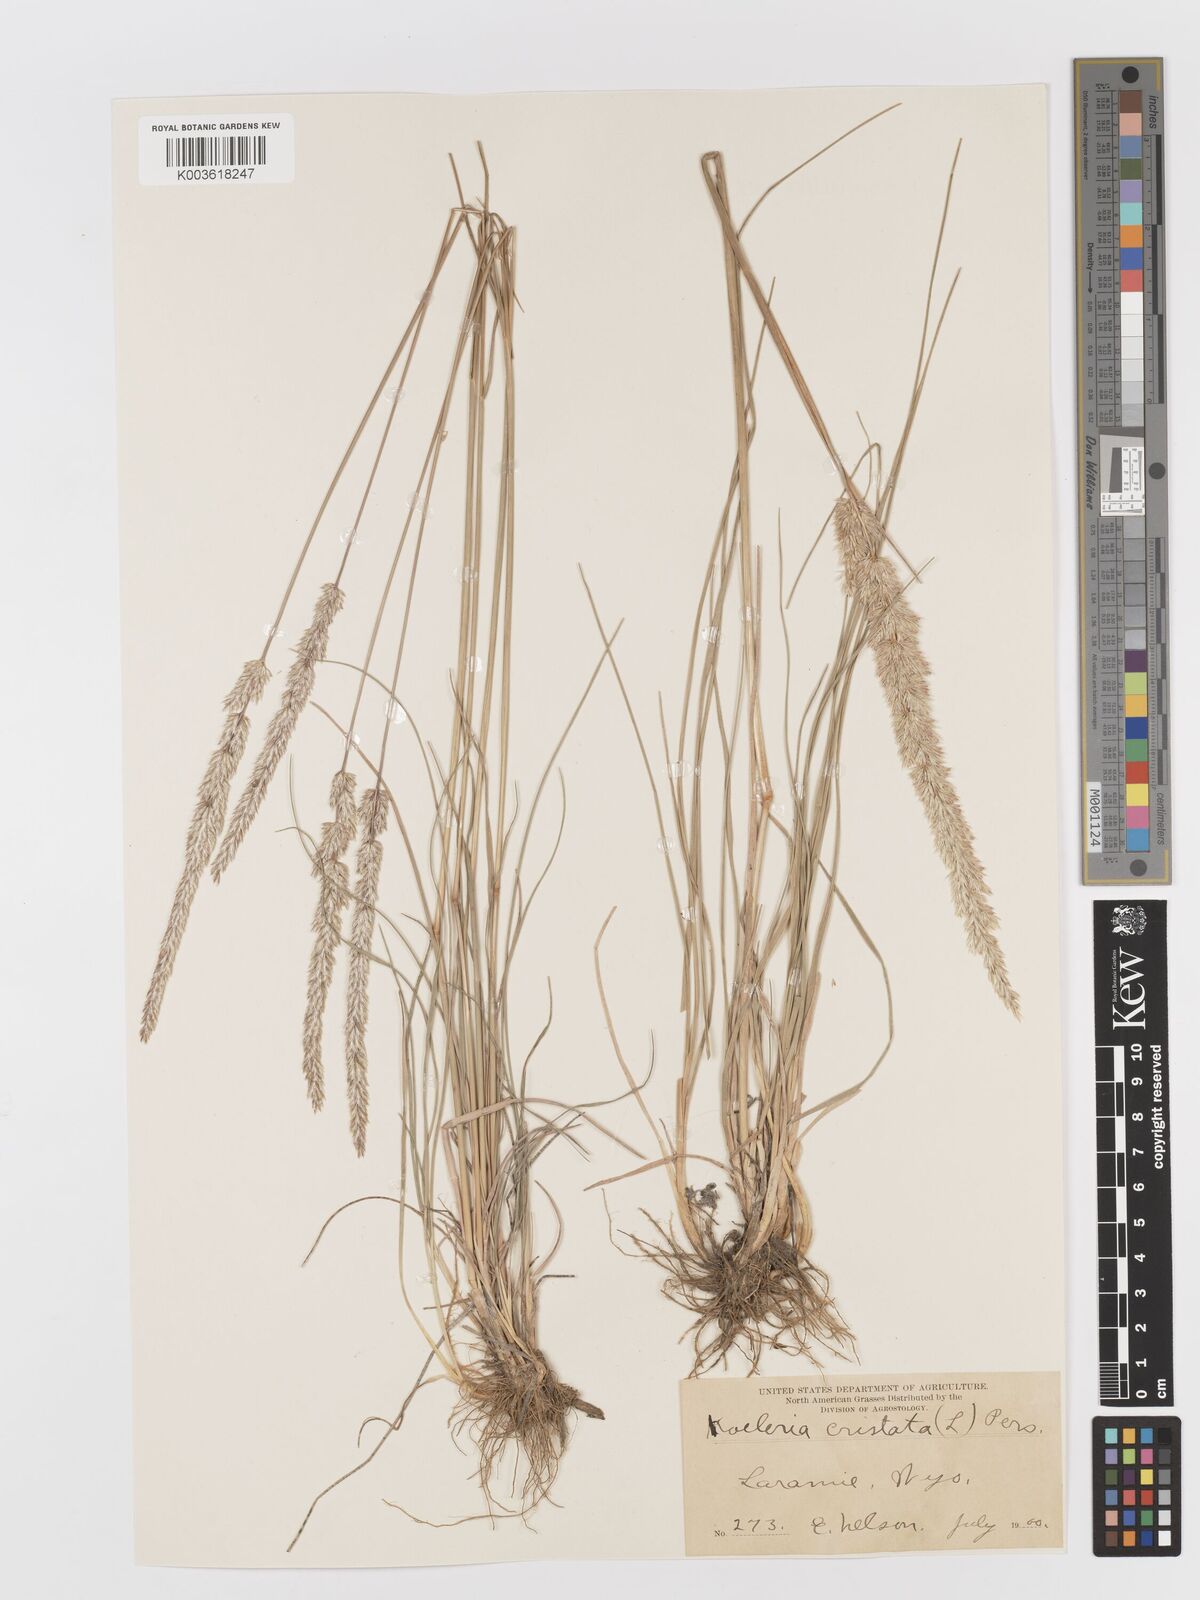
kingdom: Plantae
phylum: Tracheophyta
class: Liliopsida
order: Poales
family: Poaceae
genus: Koeleria
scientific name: Koeleria macrantha
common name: Crested hair-grass
